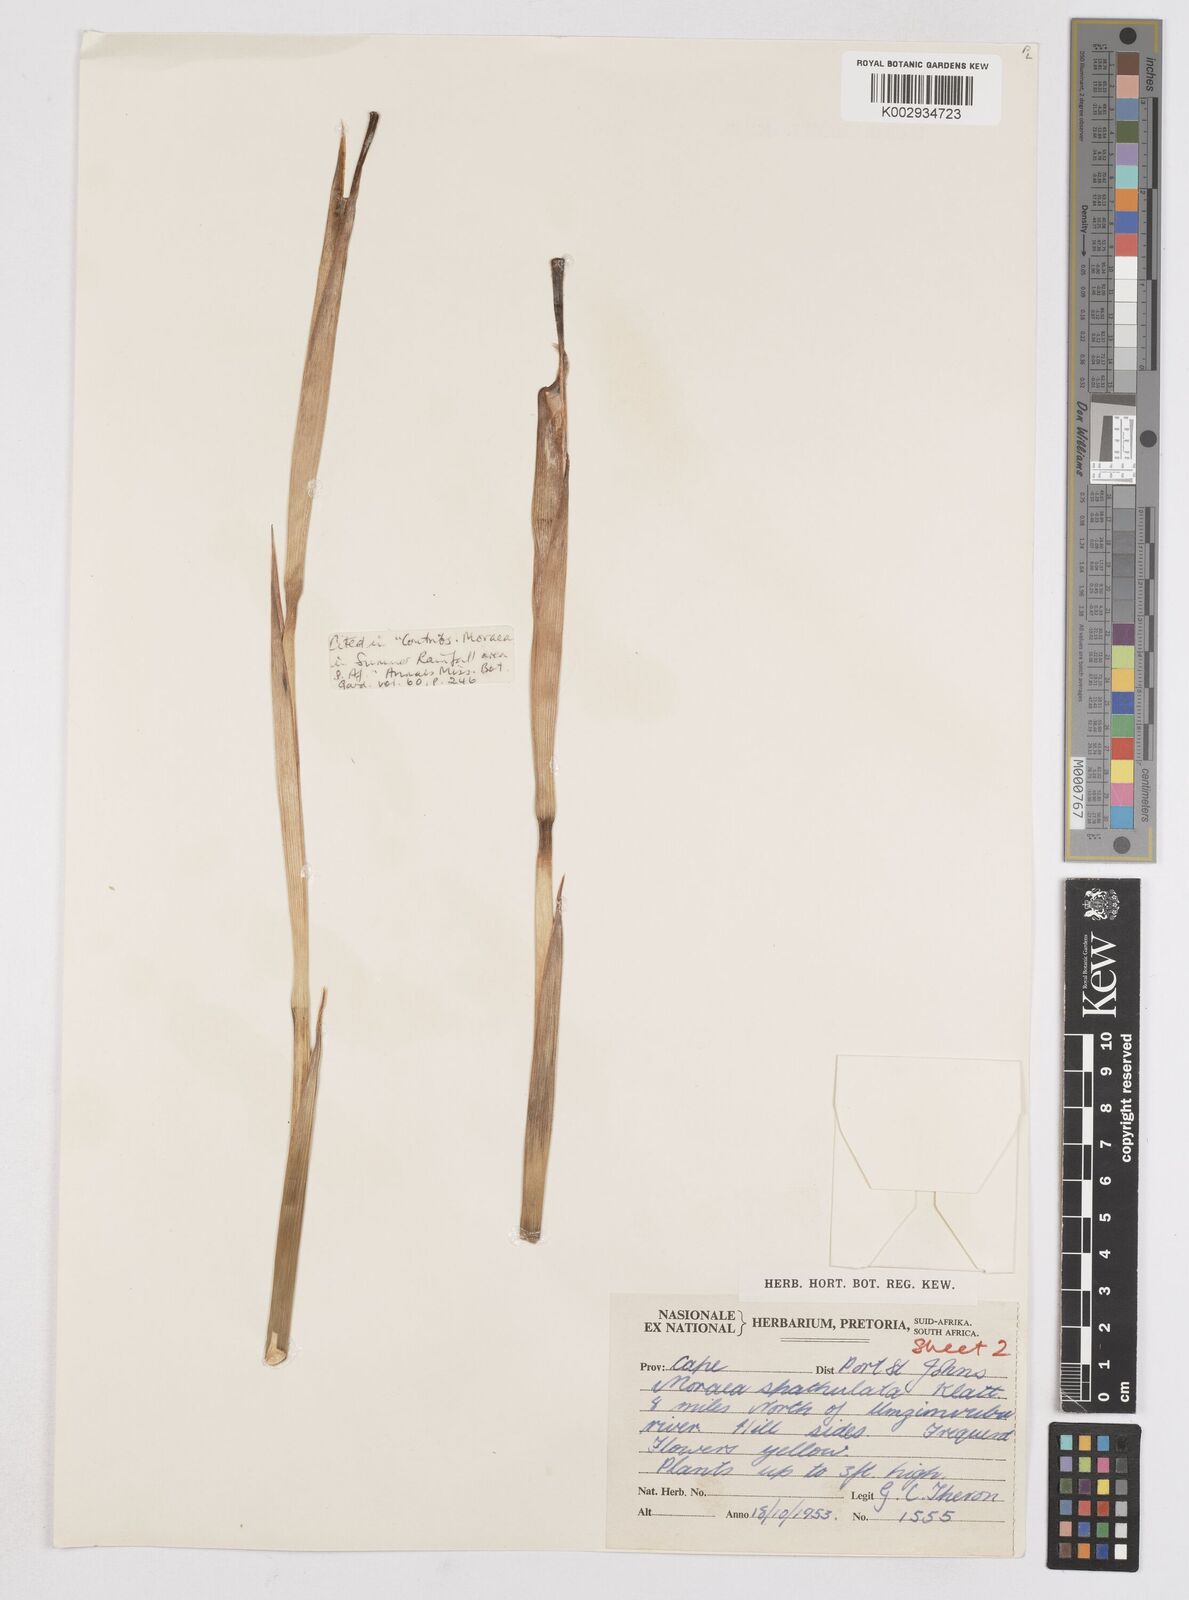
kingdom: Plantae
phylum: Tracheophyta
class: Liliopsida
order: Asparagales
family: Iridaceae
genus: Moraea
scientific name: Moraea graminicola
